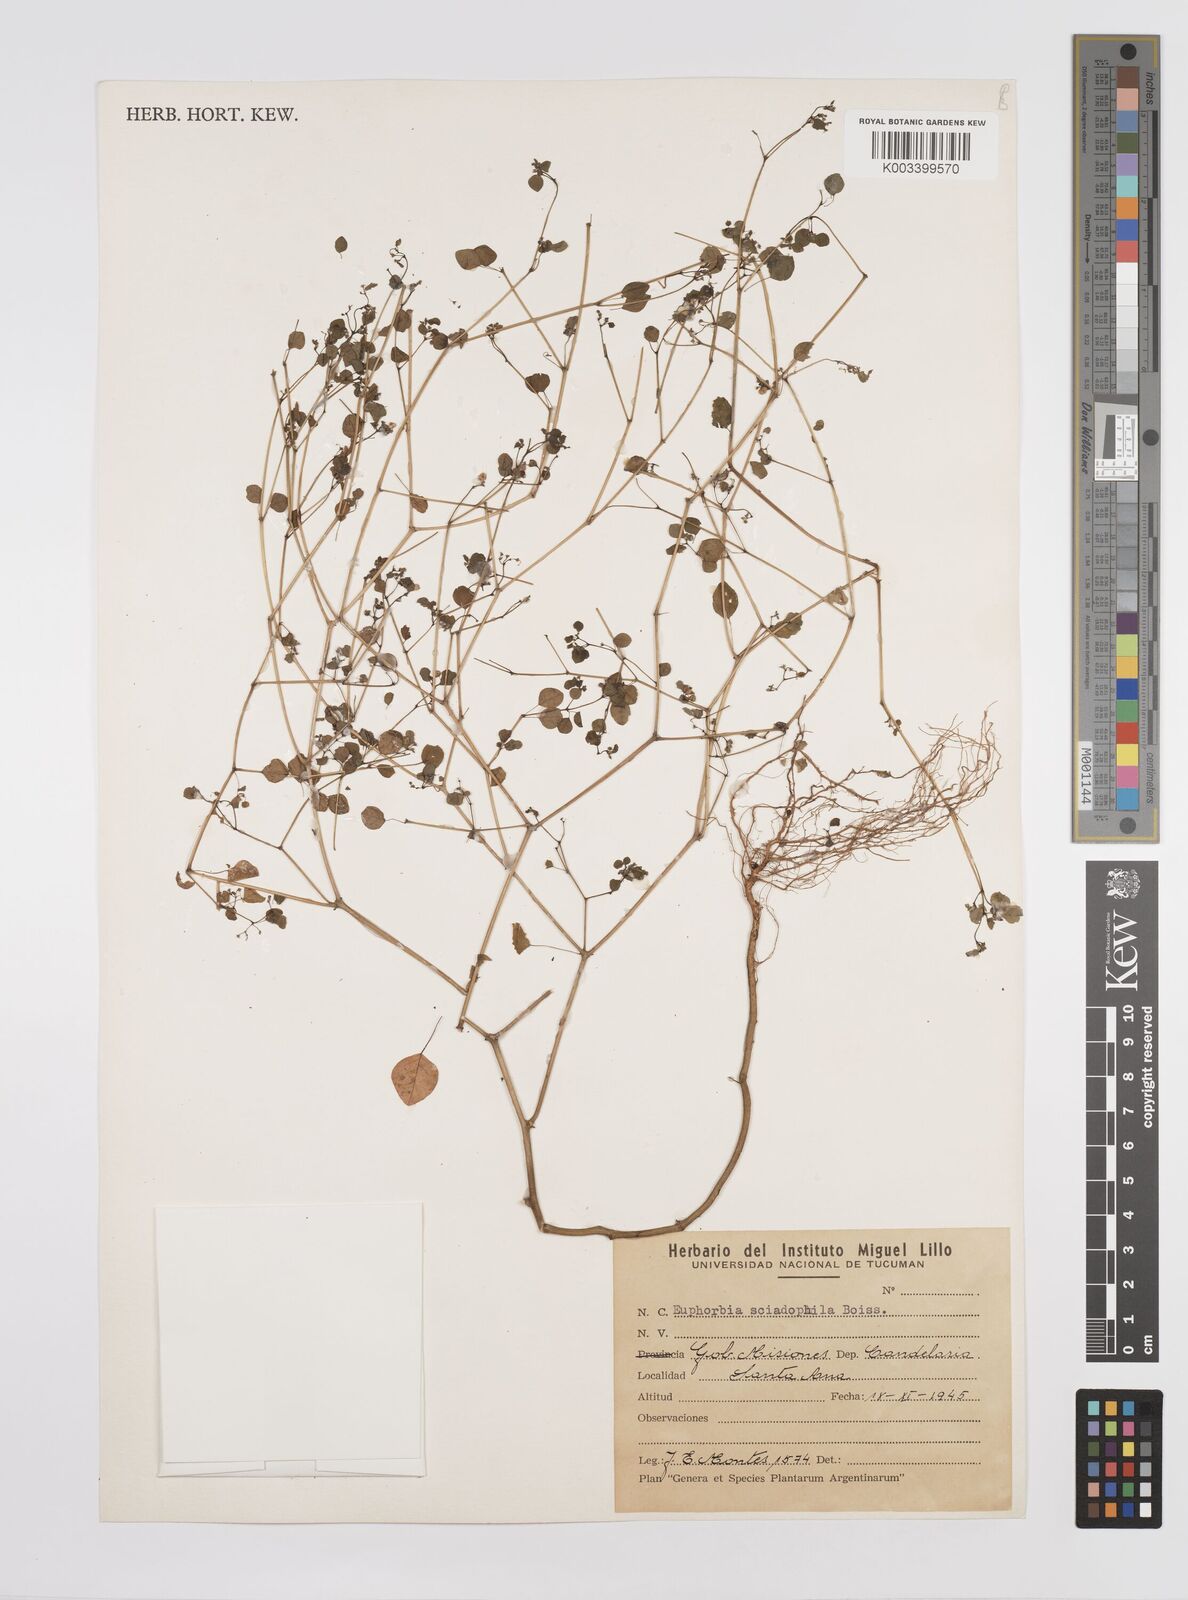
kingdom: Plantae
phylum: Tracheophyta
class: Magnoliopsida
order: Malpighiales
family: Euphorbiaceae
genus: Euphorbia
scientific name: Euphorbia sciadophila
